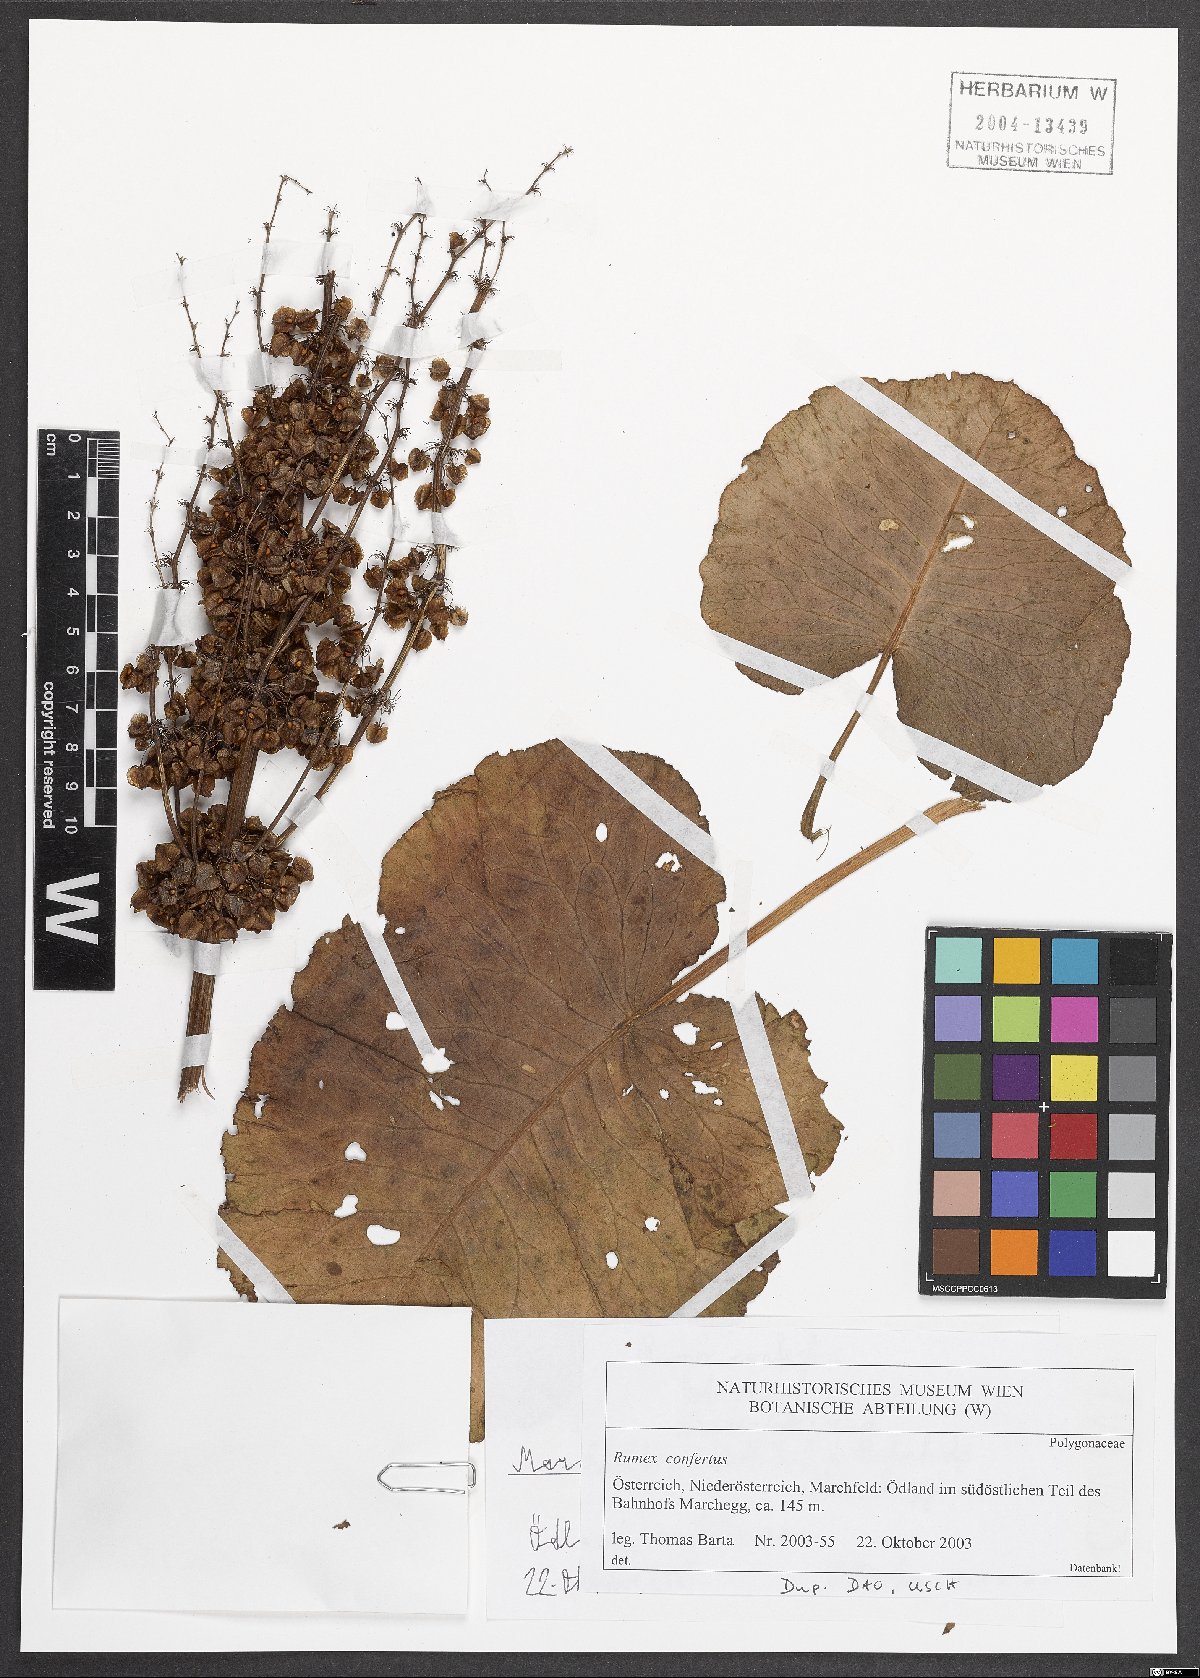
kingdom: Plantae
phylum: Tracheophyta
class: Magnoliopsida
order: Caryophyllales
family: Polygonaceae
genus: Rumex
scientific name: Rumex confertus
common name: Russian dock
